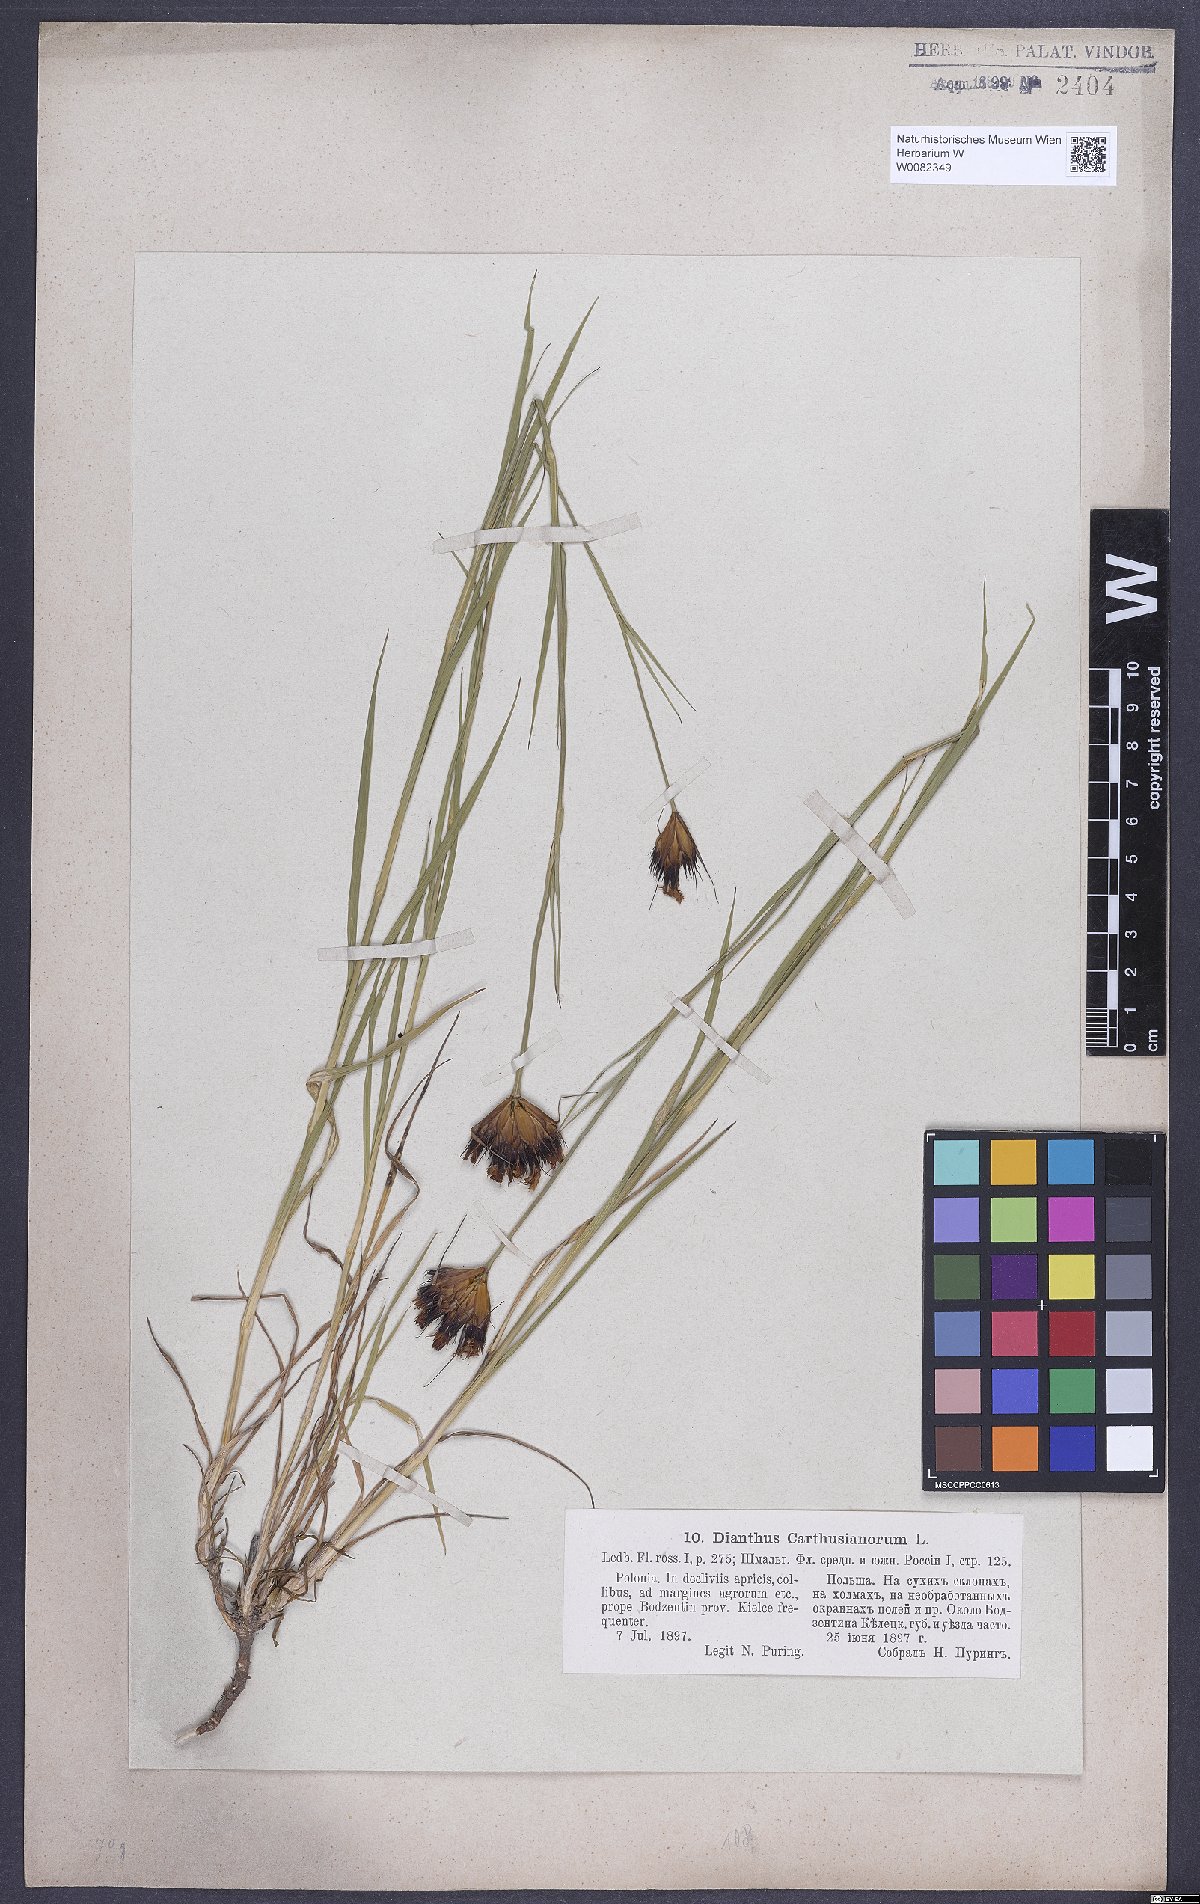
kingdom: Plantae
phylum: Tracheophyta
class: Magnoliopsida
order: Caryophyllales
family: Caryophyllaceae
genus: Dianthus
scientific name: Dianthus carthusianorum
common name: Carthusian pink
